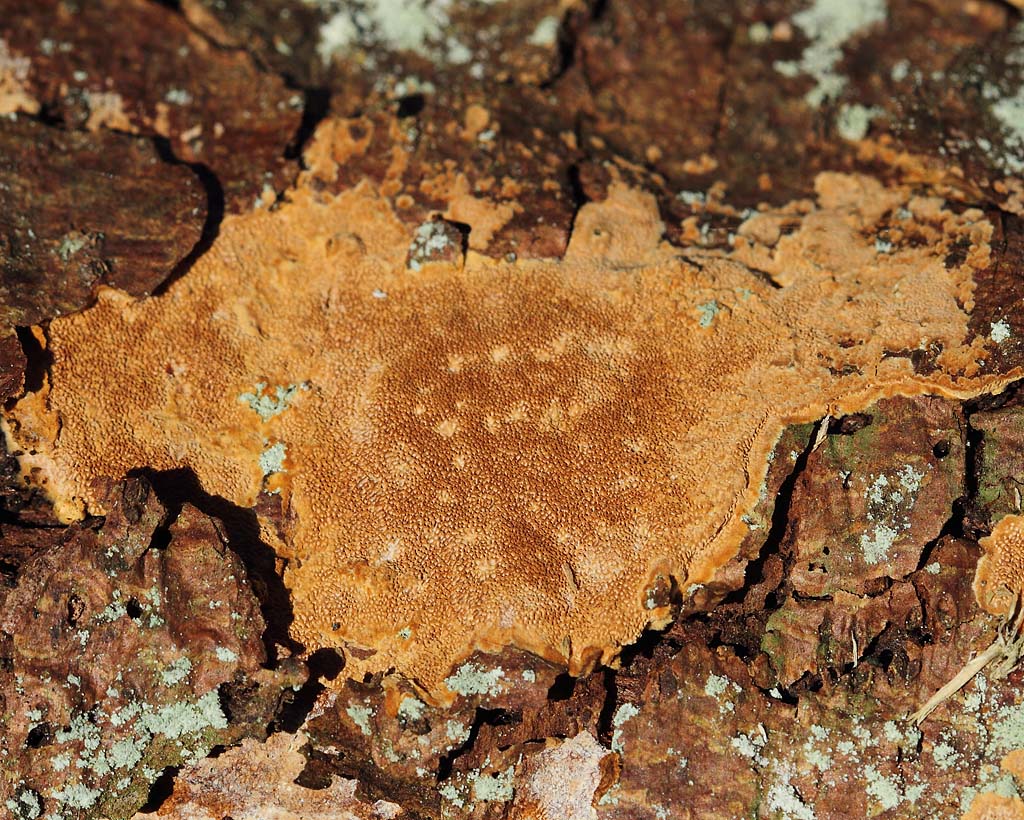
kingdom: Fungi
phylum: Basidiomycota
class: Agaricomycetes
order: Hymenochaetales
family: Hymenochaetaceae
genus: Fuscoporia
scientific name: Fuscoporia ferrea
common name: skorpe-ildporesvamp
